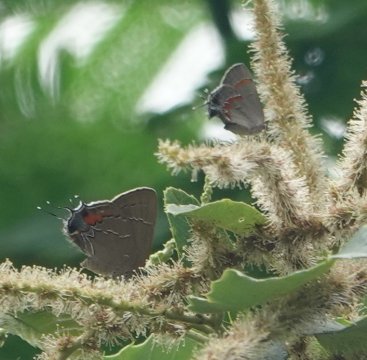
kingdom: Animalia
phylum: Arthropoda
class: Insecta
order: Lepidoptera
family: Lycaenidae
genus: Calycopis
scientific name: Calycopis cecrops
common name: Red-banded Hairstreak
